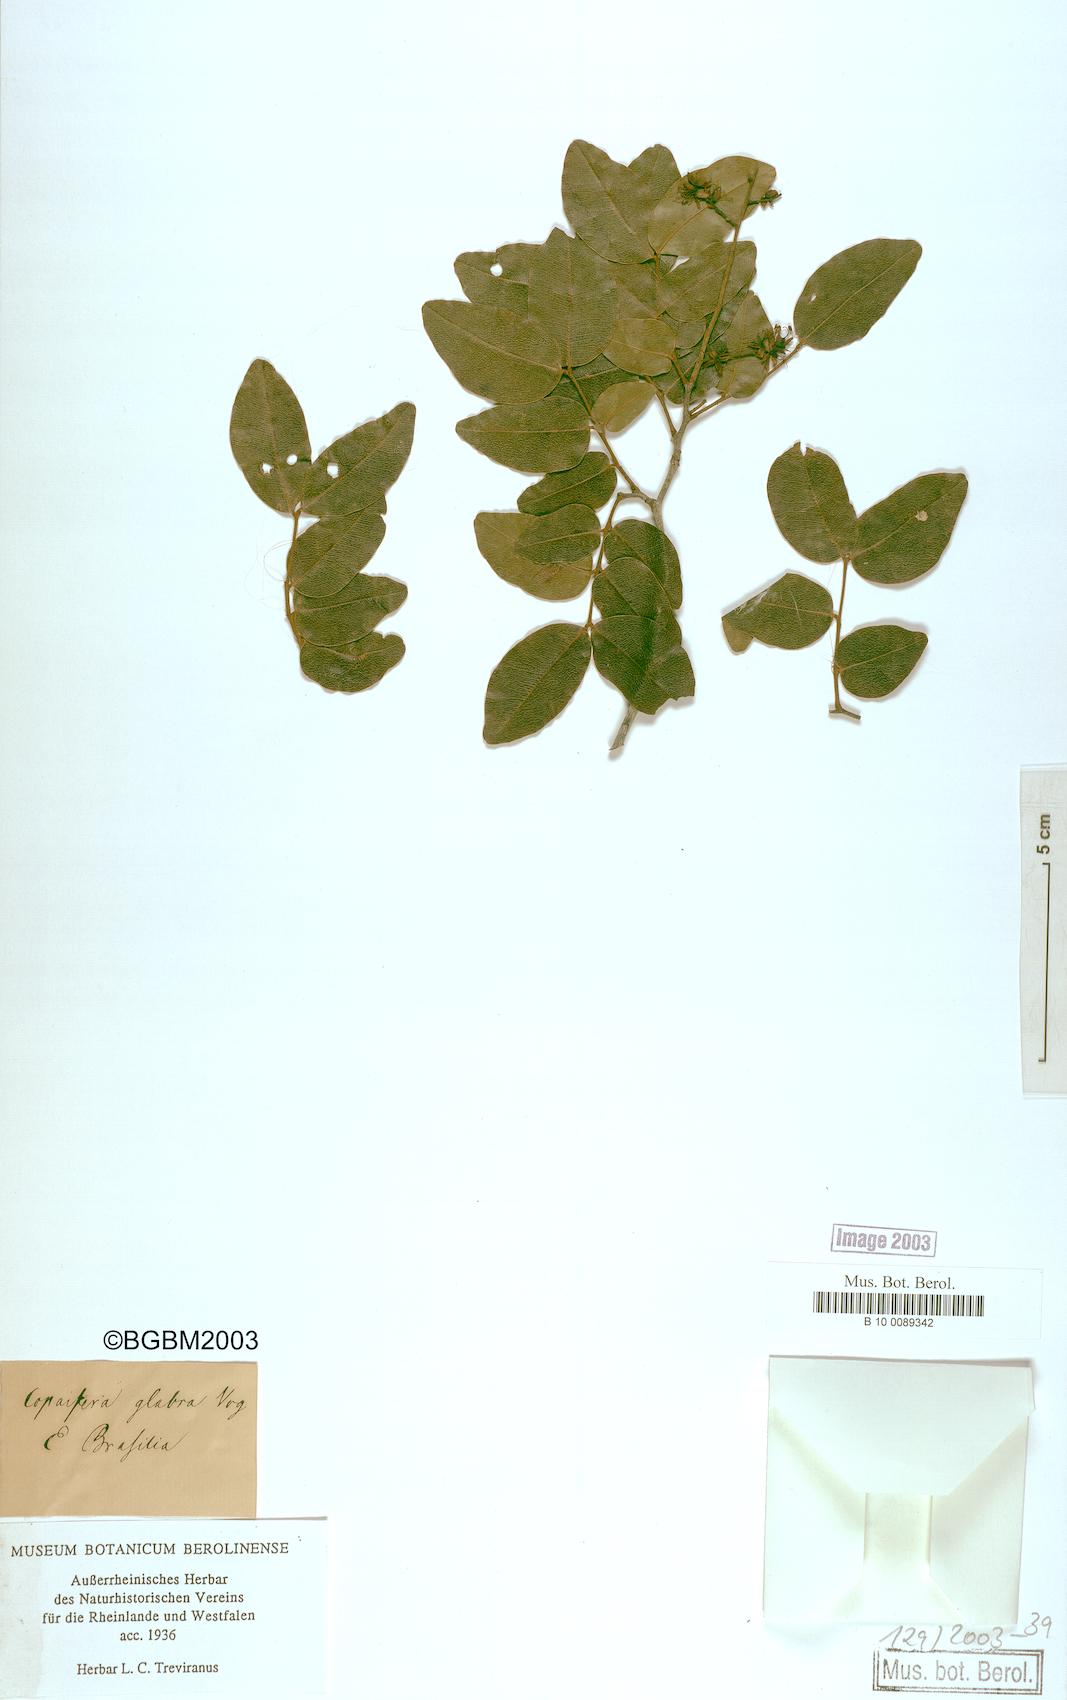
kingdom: Plantae
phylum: Tracheophyta
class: Magnoliopsida
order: Fabales
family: Fabaceae
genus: Copaifera
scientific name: Copaifera langsdorffii
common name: Brazilian diesel tree
